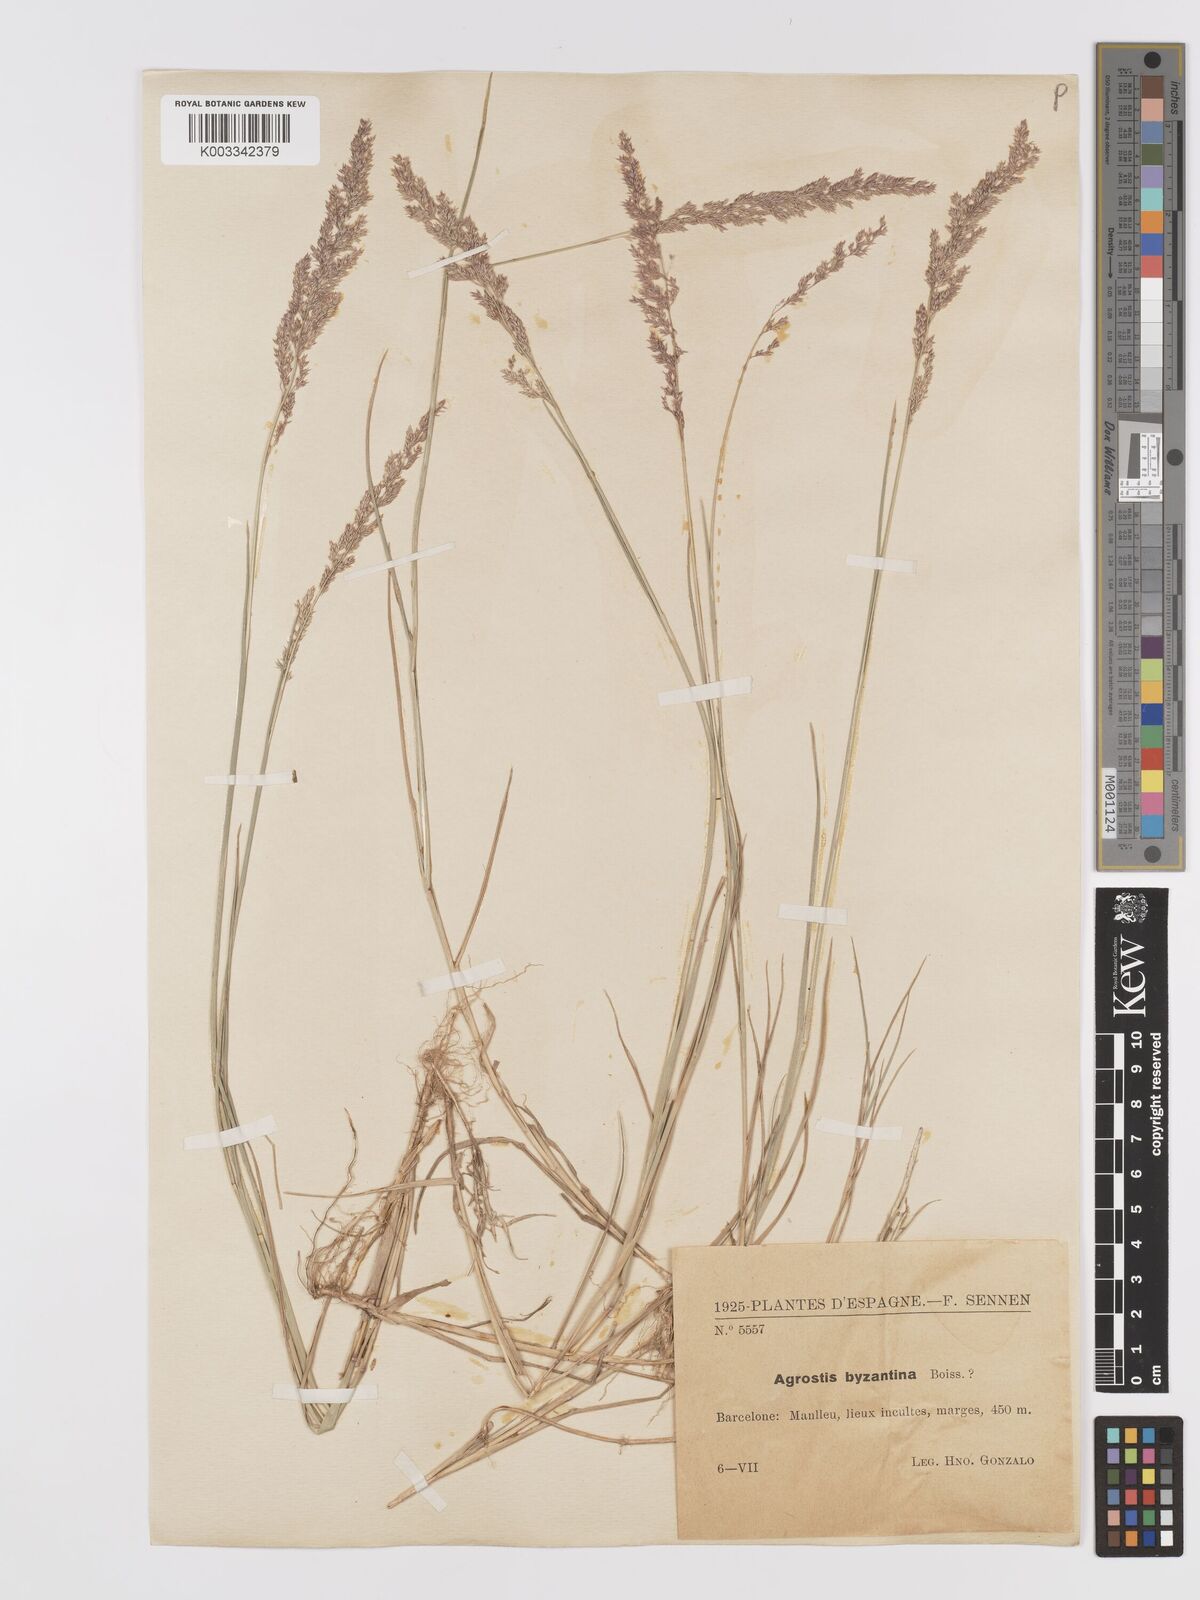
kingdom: Plantae
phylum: Tracheophyta
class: Liliopsida
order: Poales
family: Poaceae
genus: Agrostis
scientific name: Agrostis castellana
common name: Highland bent
